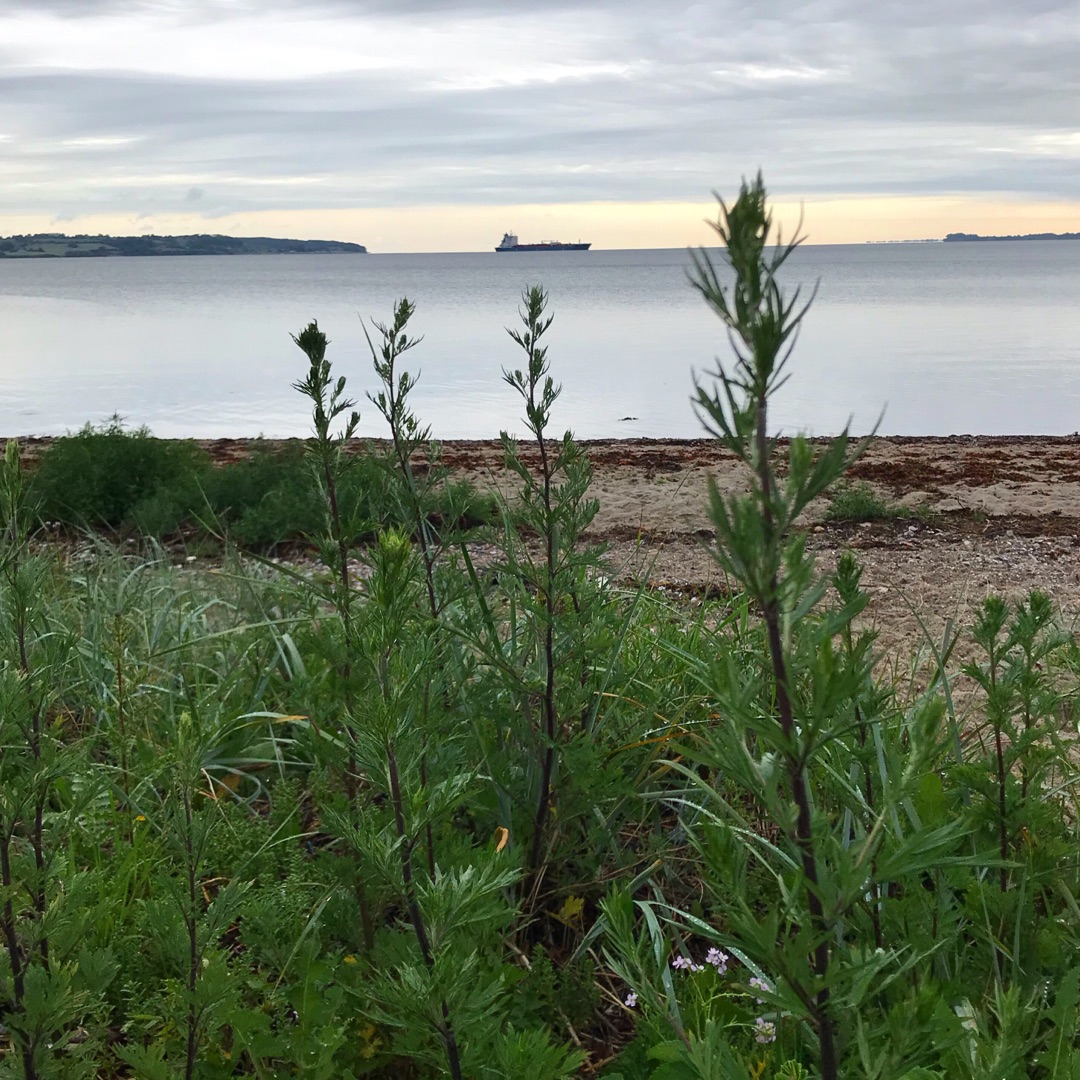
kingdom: Plantae
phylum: Tracheophyta
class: Magnoliopsida
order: Asterales
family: Asteraceae
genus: Artemisia
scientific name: Artemisia vulgaris
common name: Grå-bynke
